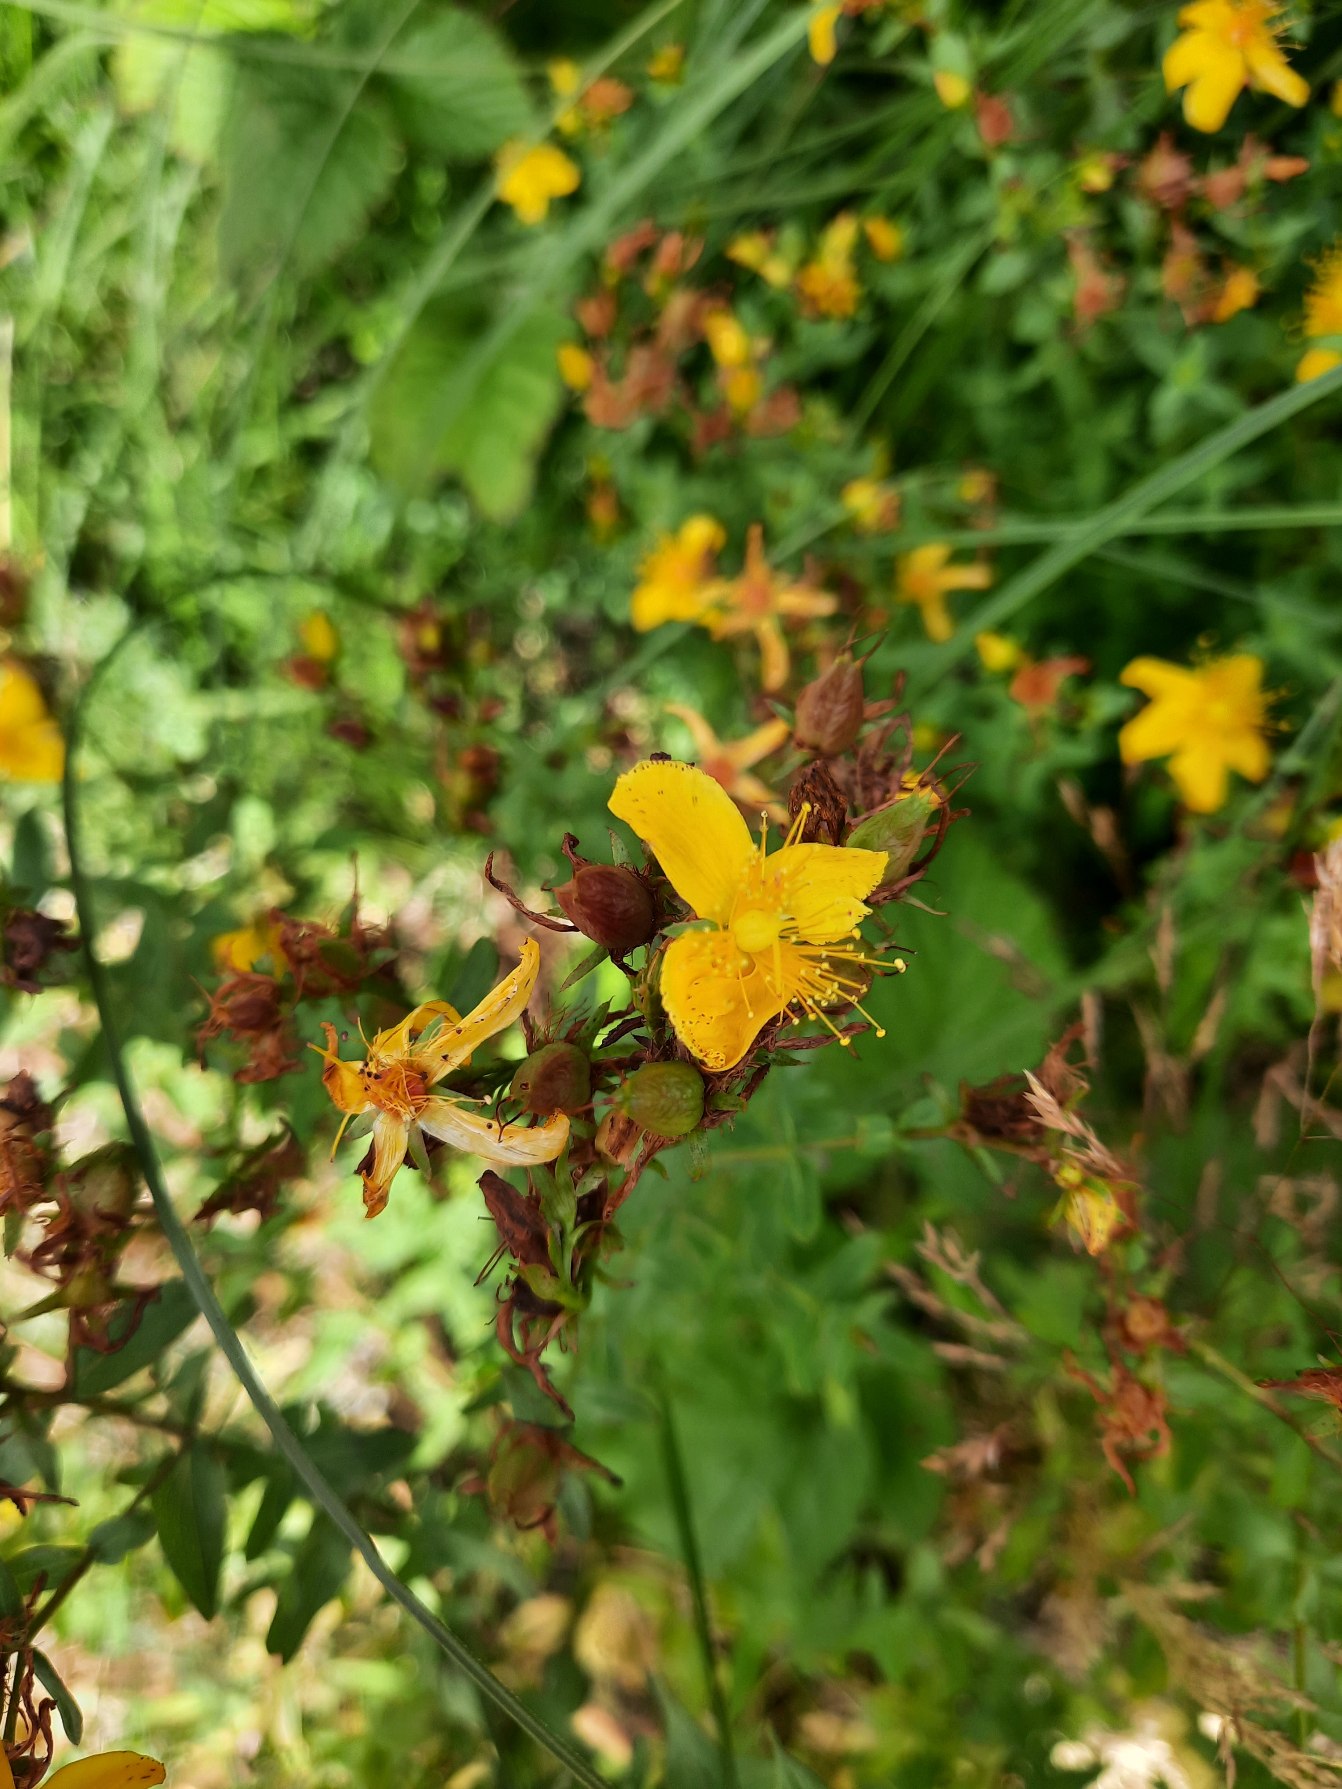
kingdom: Plantae
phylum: Tracheophyta
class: Magnoliopsida
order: Malpighiales
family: Hypericaceae
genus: Hypericum
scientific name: Hypericum perforatum
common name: Prikbladet perikon
